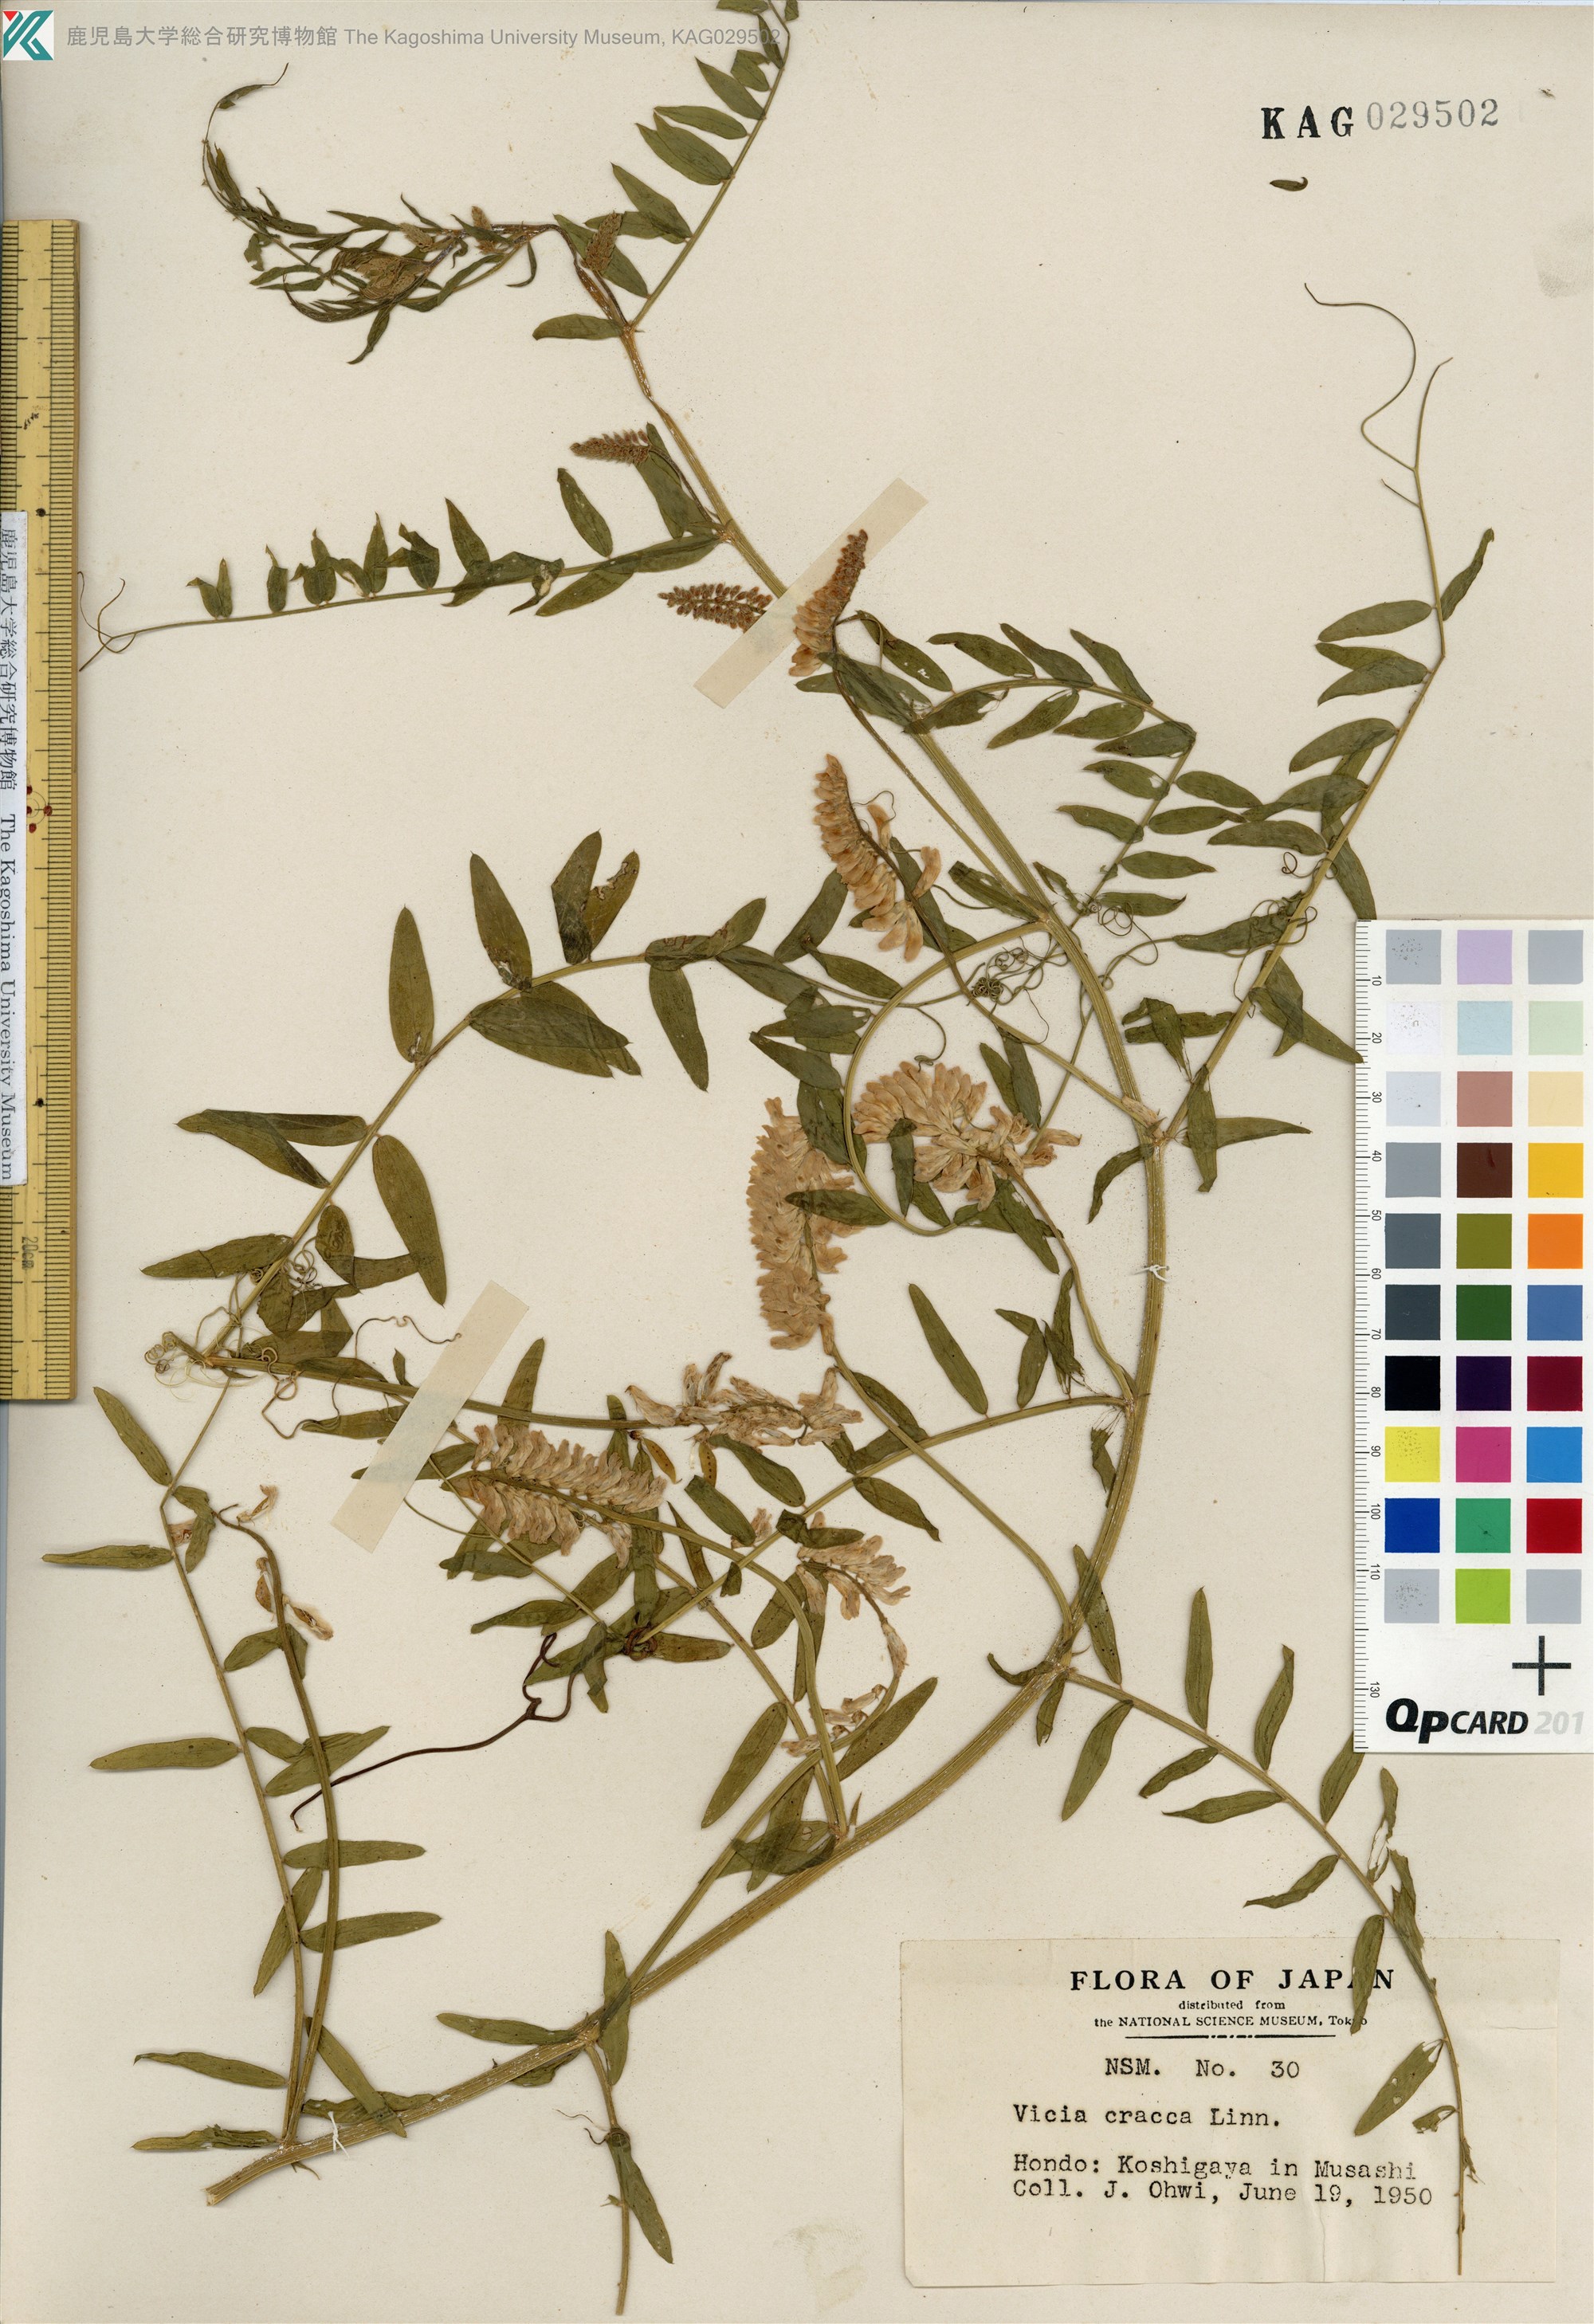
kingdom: Plantae
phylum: Tracheophyta
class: Magnoliopsida
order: Fabales
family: Fabaceae
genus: Vicia
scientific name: Vicia cracca
